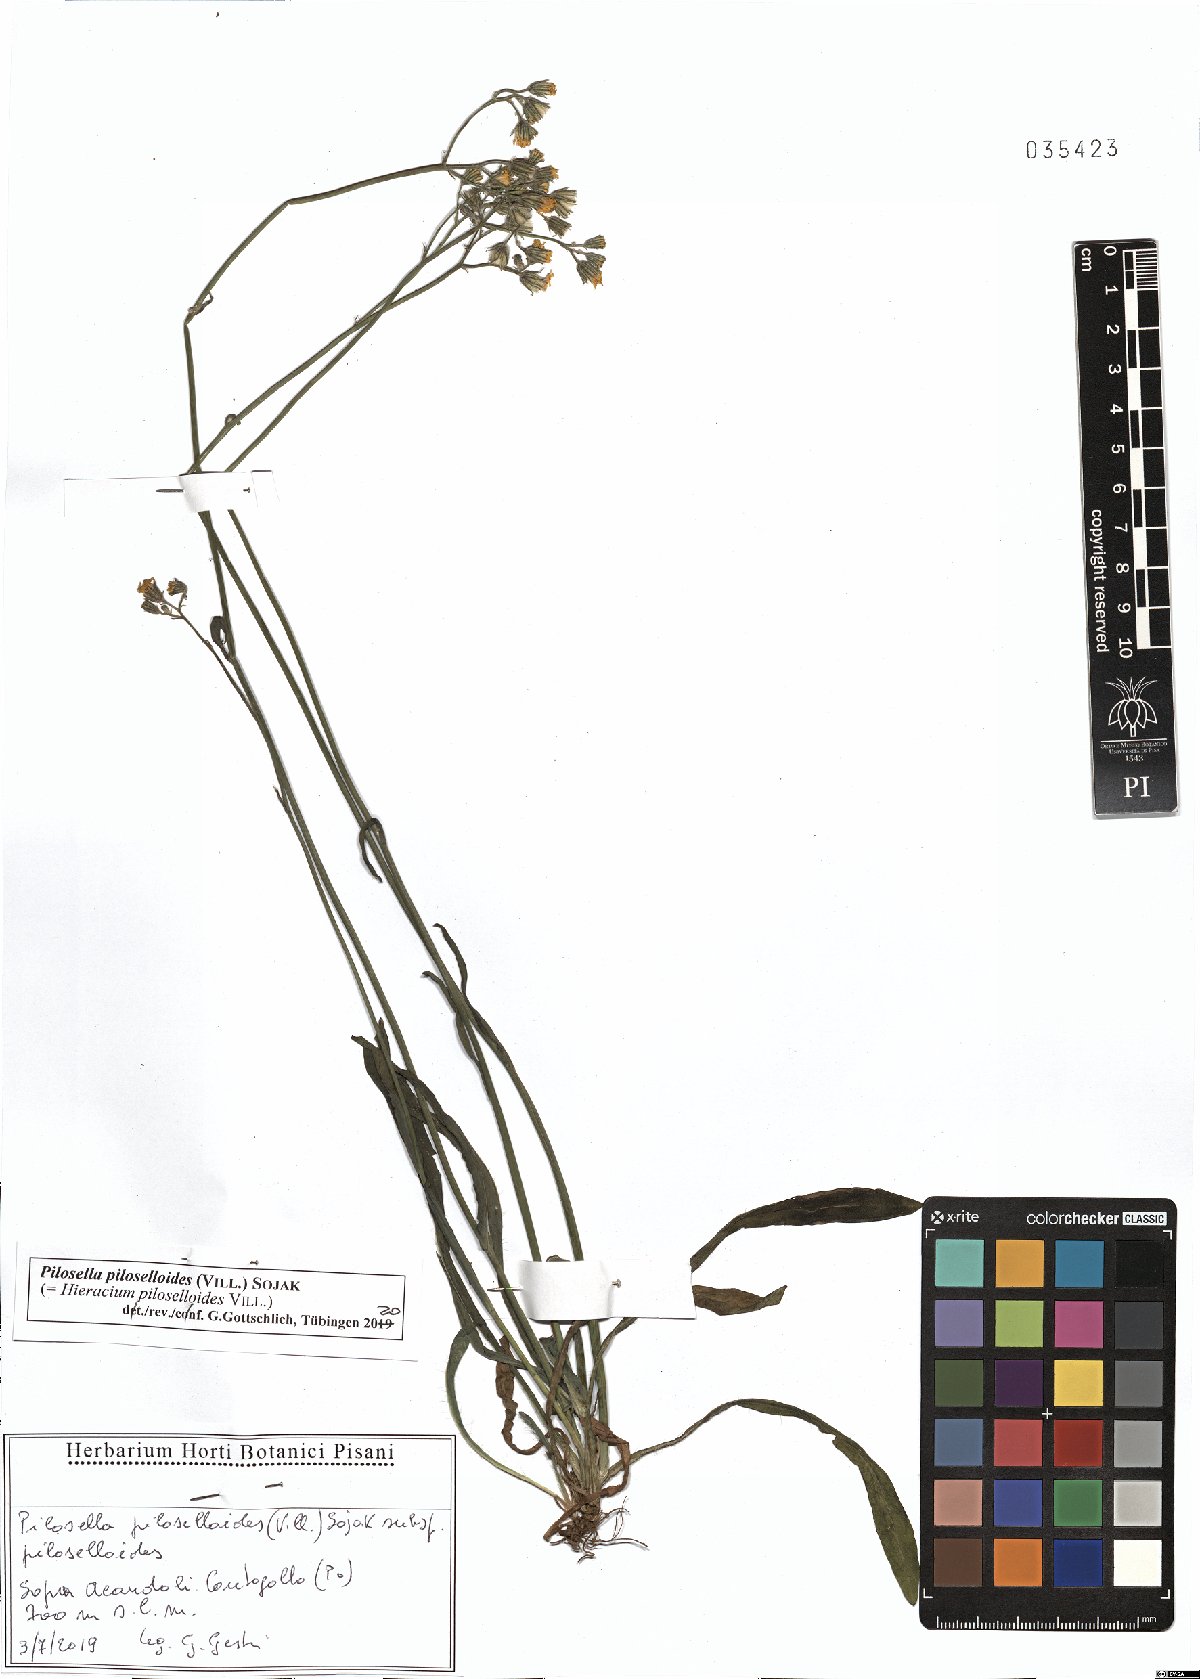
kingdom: Plantae
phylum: Tracheophyta
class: Magnoliopsida
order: Asterales
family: Asteraceae
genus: Pilosella
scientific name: Pilosella piloselloides
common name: Glaucous king-devil
